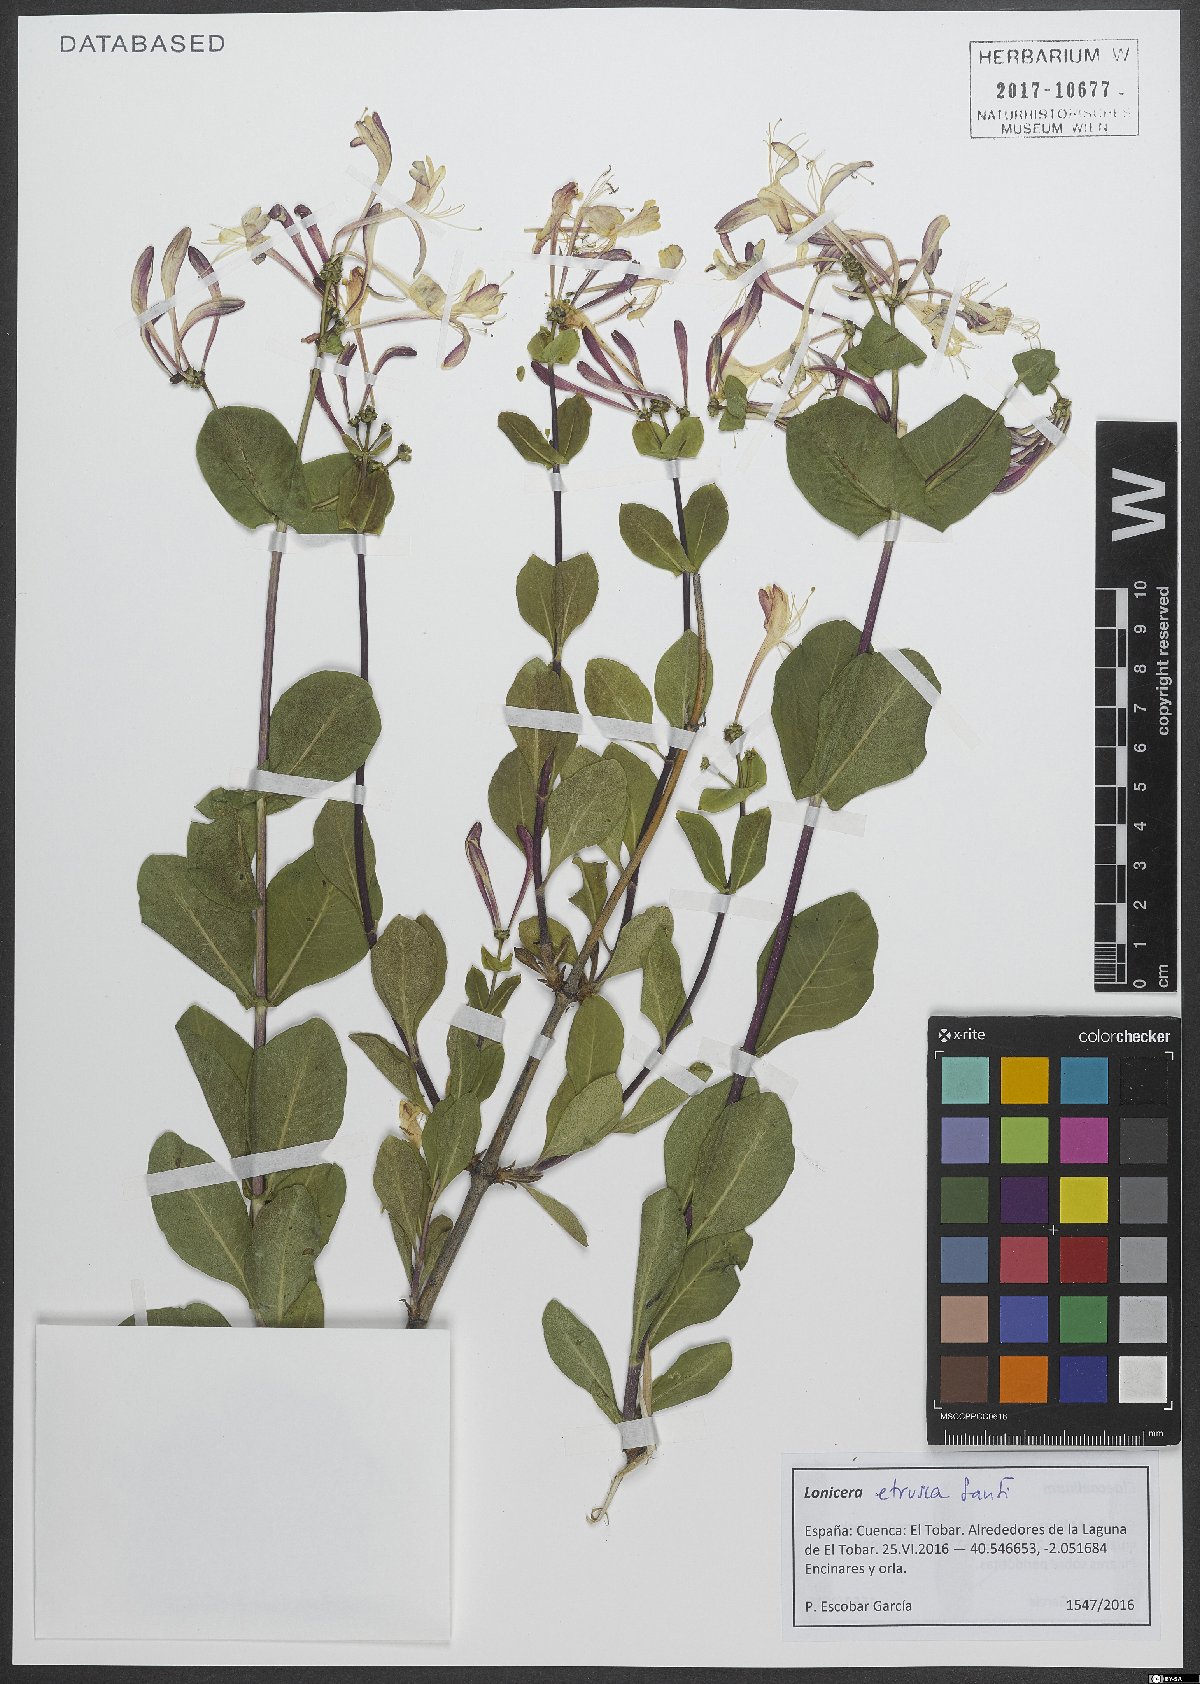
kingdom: Plantae
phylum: Tracheophyta
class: Magnoliopsida
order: Dipsacales
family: Caprifoliaceae
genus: Lonicera
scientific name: Lonicera etrusca
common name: Etruscan honeysuckle
